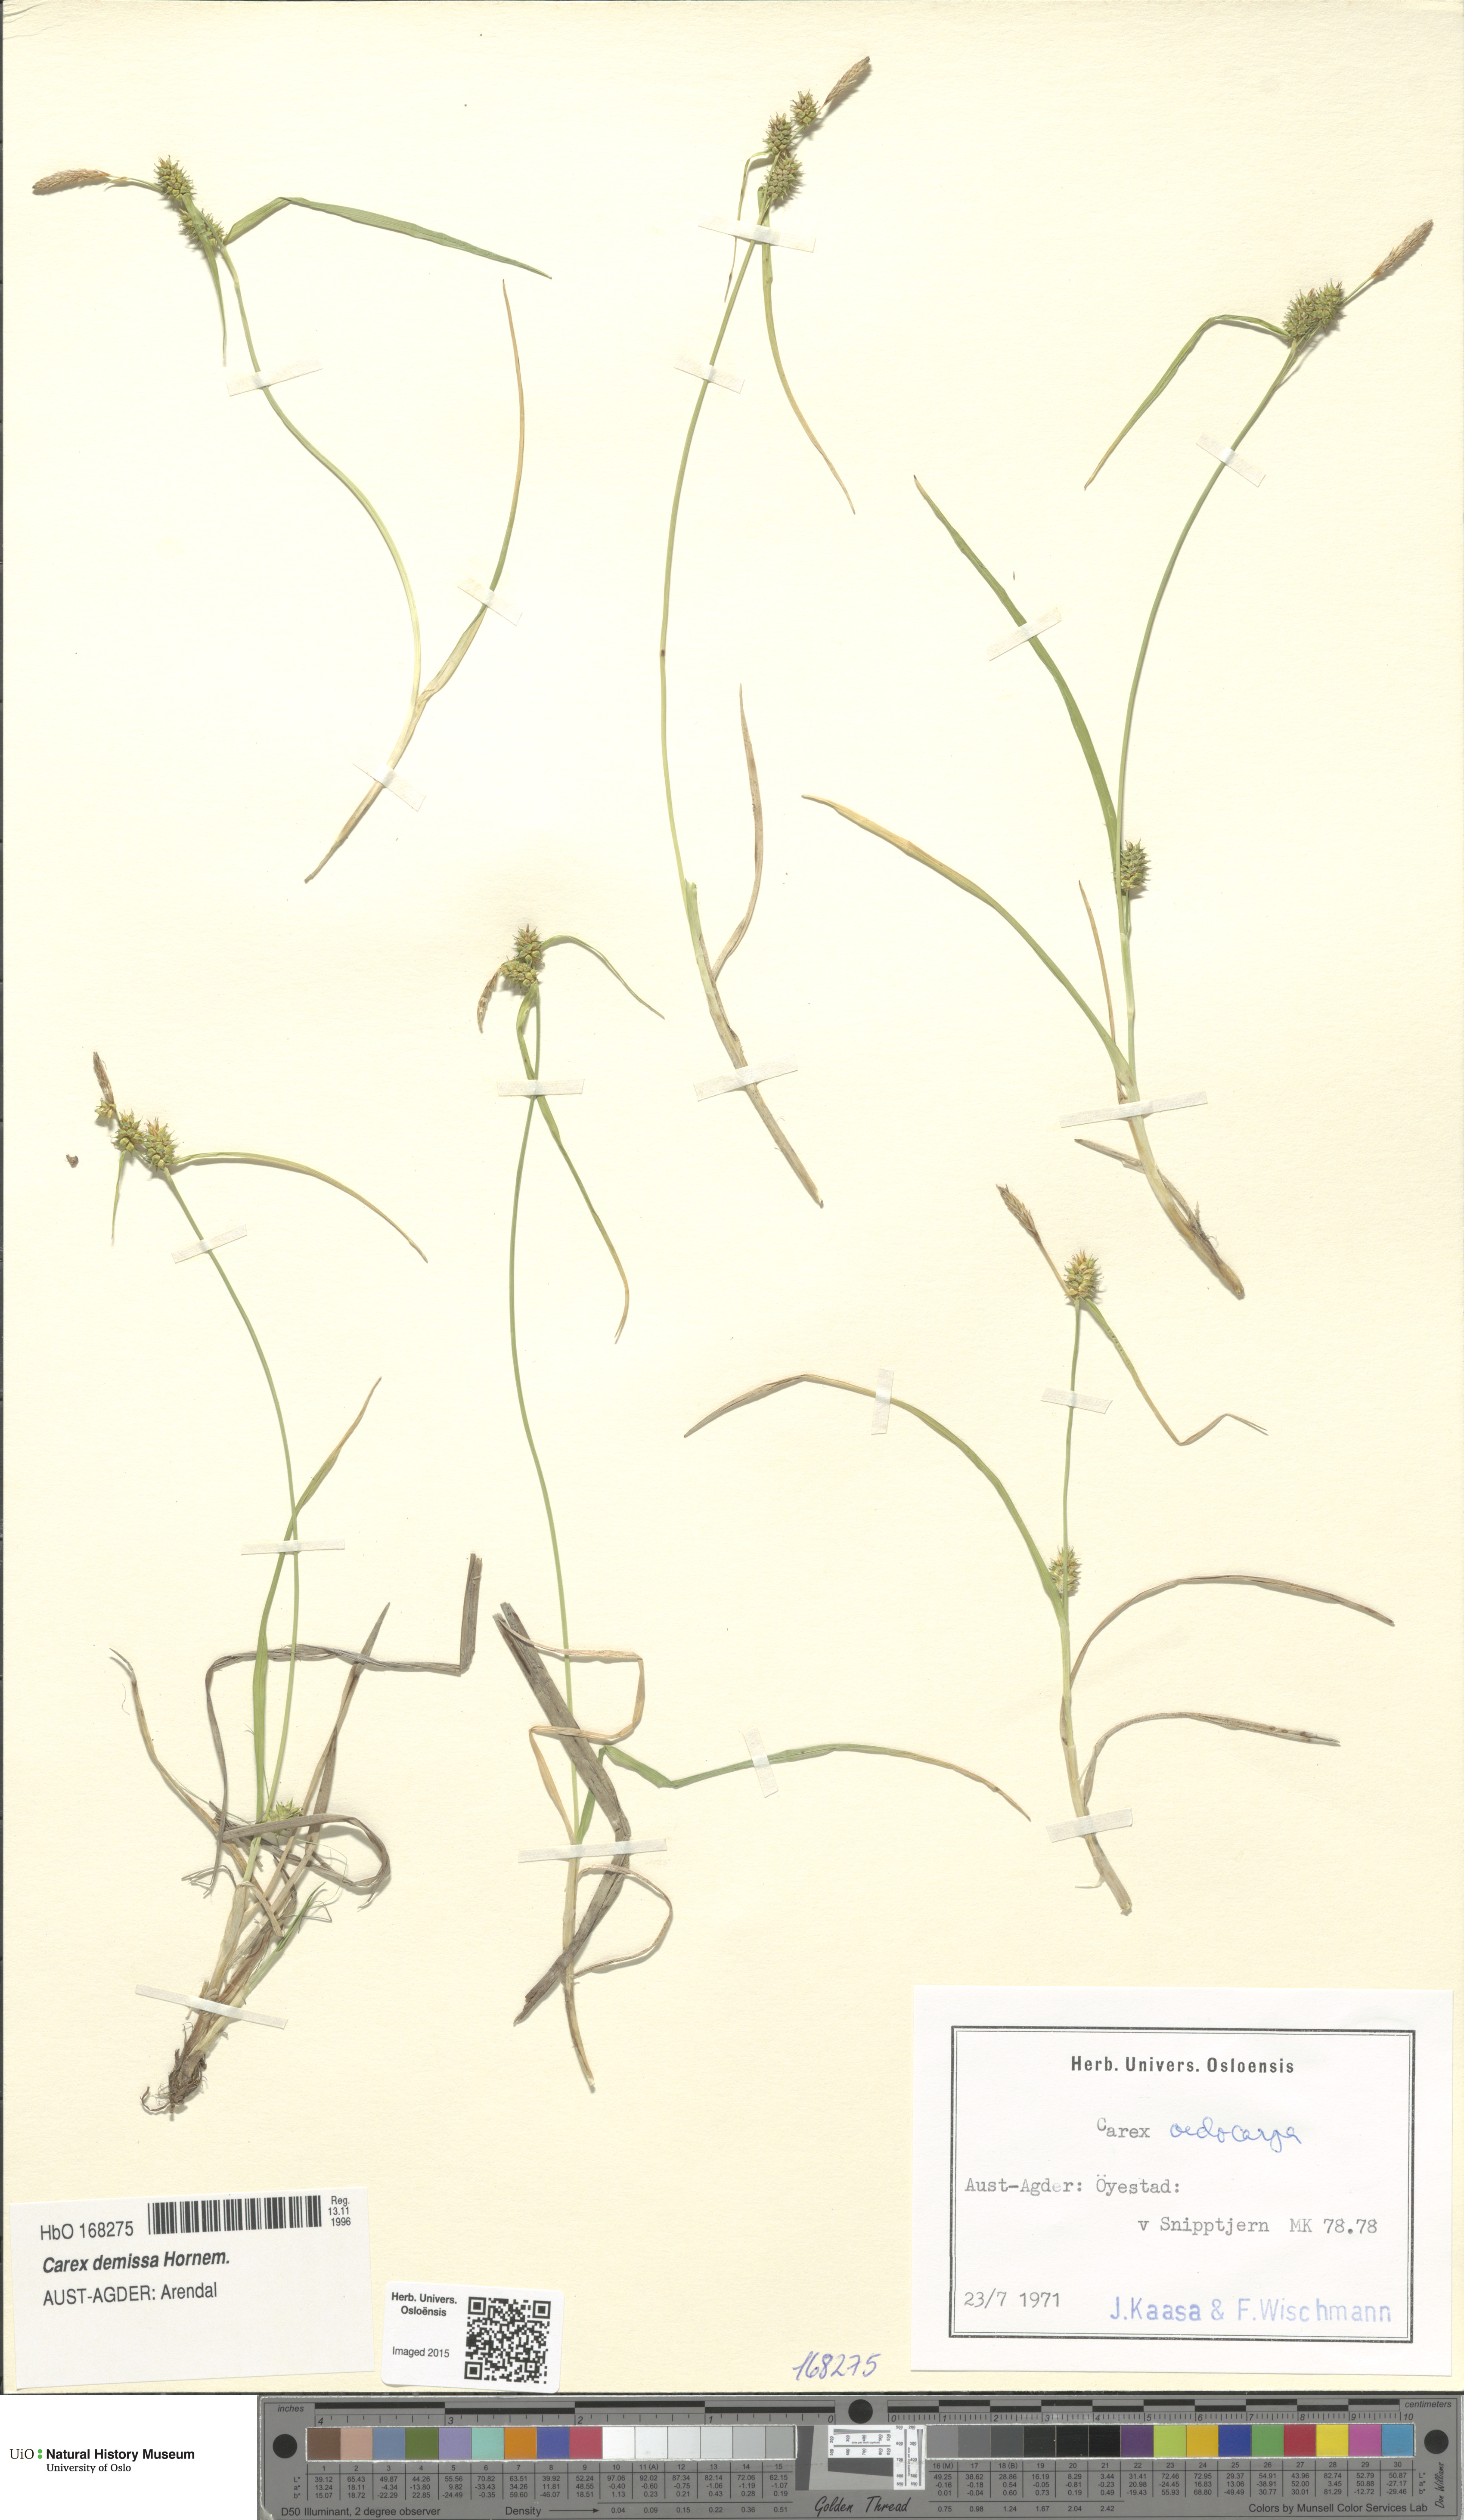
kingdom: Plantae
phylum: Tracheophyta
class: Liliopsida
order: Poales
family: Cyperaceae
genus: Carex
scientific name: Carex demissa
